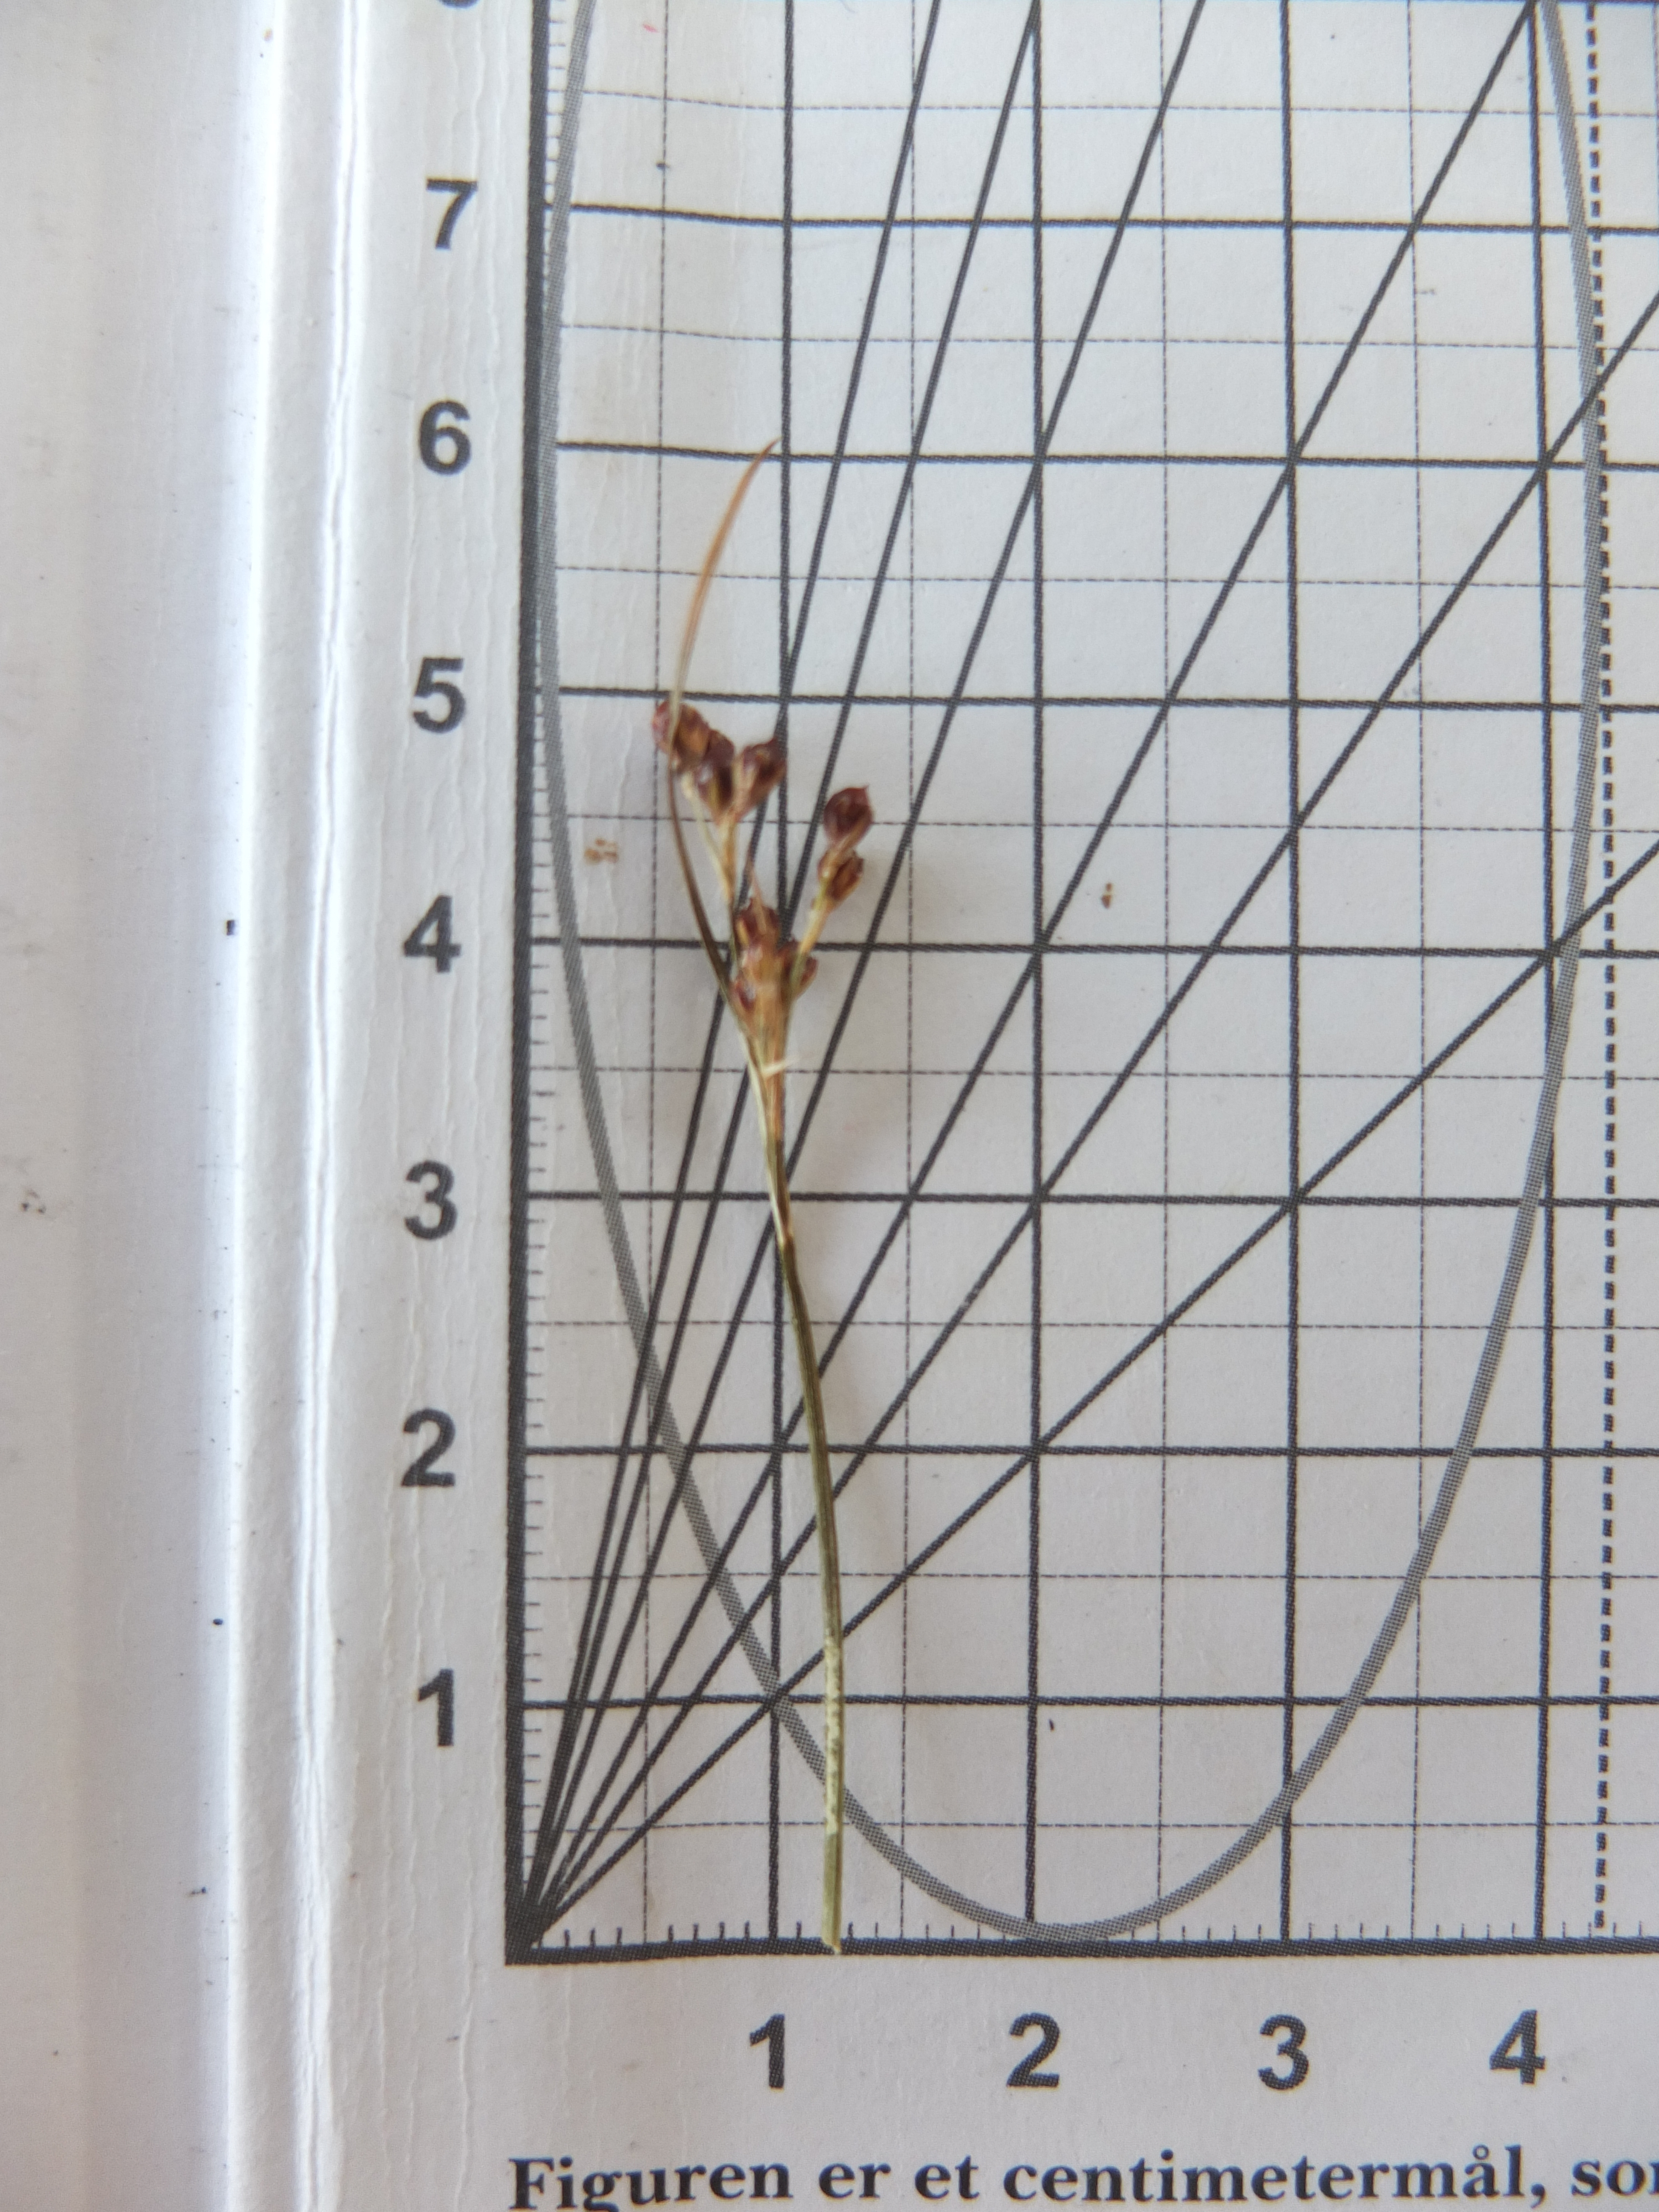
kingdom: Plantae
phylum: Tracheophyta
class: Liliopsida
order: Poales
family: Juncaceae
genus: Juncus
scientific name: Juncus compressus
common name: Fladstrået siv
